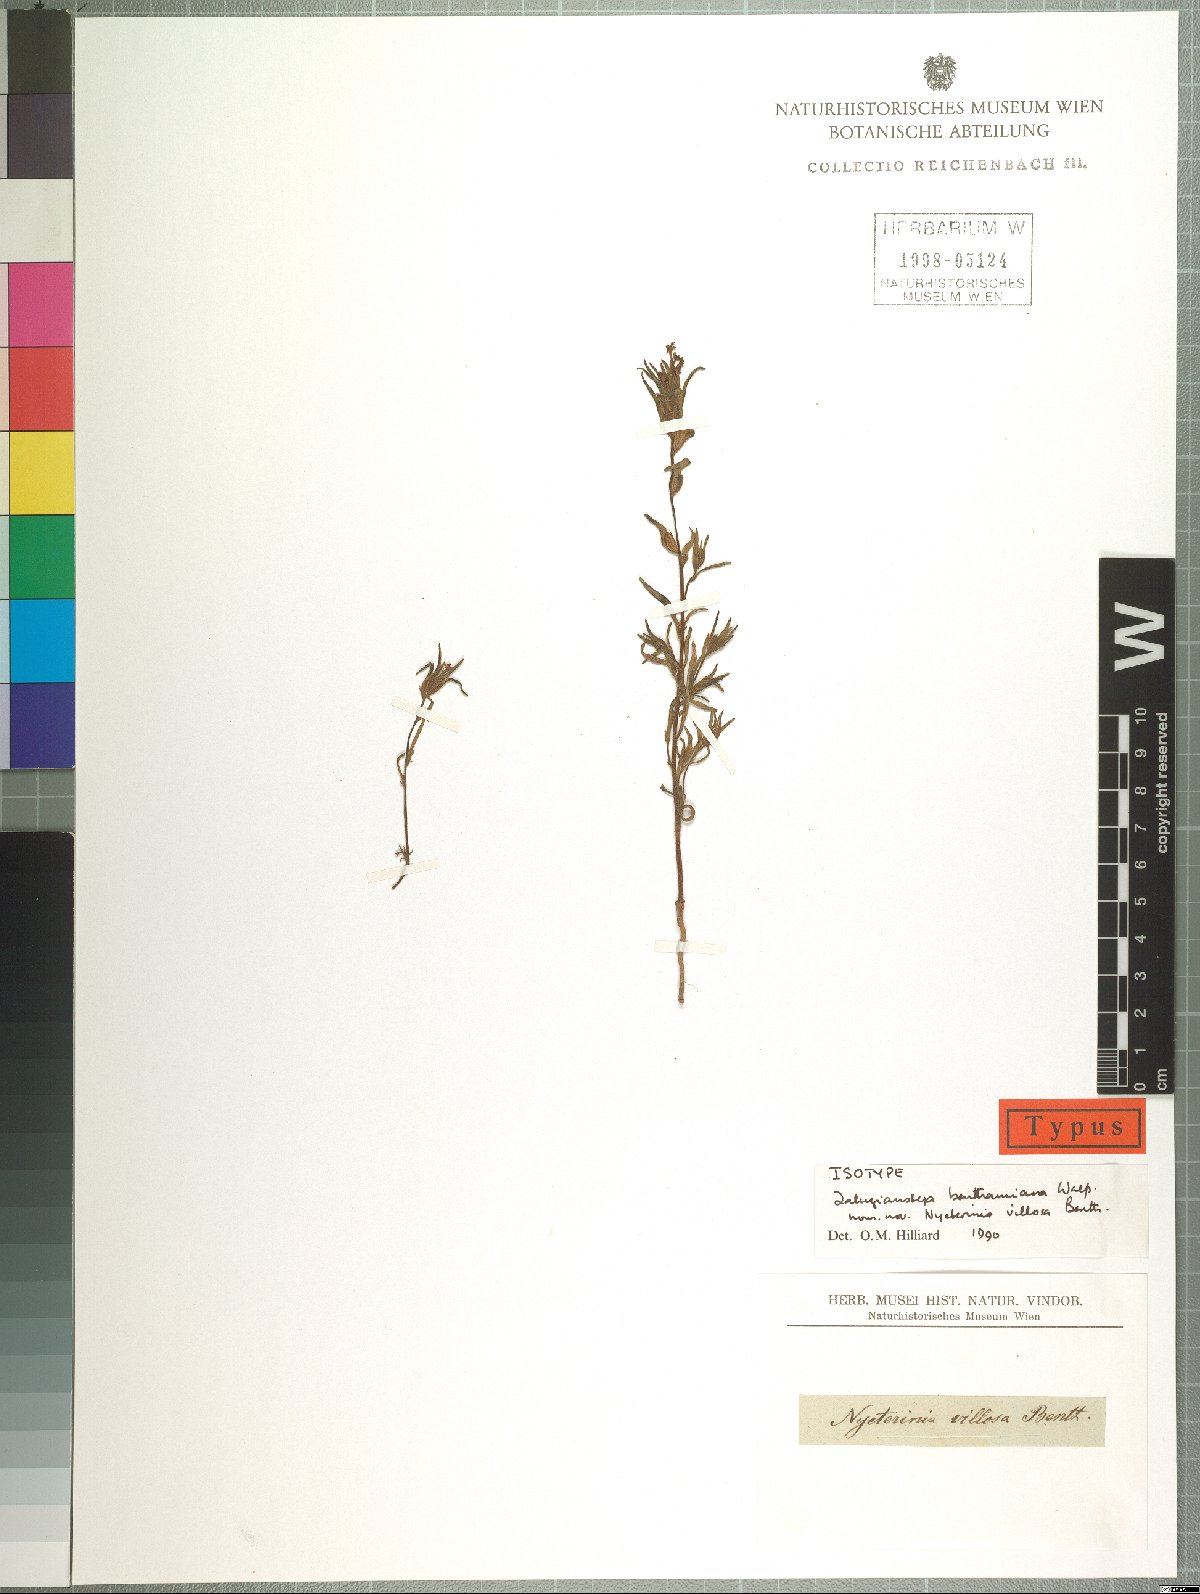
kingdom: Plantae
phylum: Tracheophyta
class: Magnoliopsida
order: Lamiales
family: Scrophulariaceae
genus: Zaluzianskya
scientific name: Zaluzianskya benthamiana
